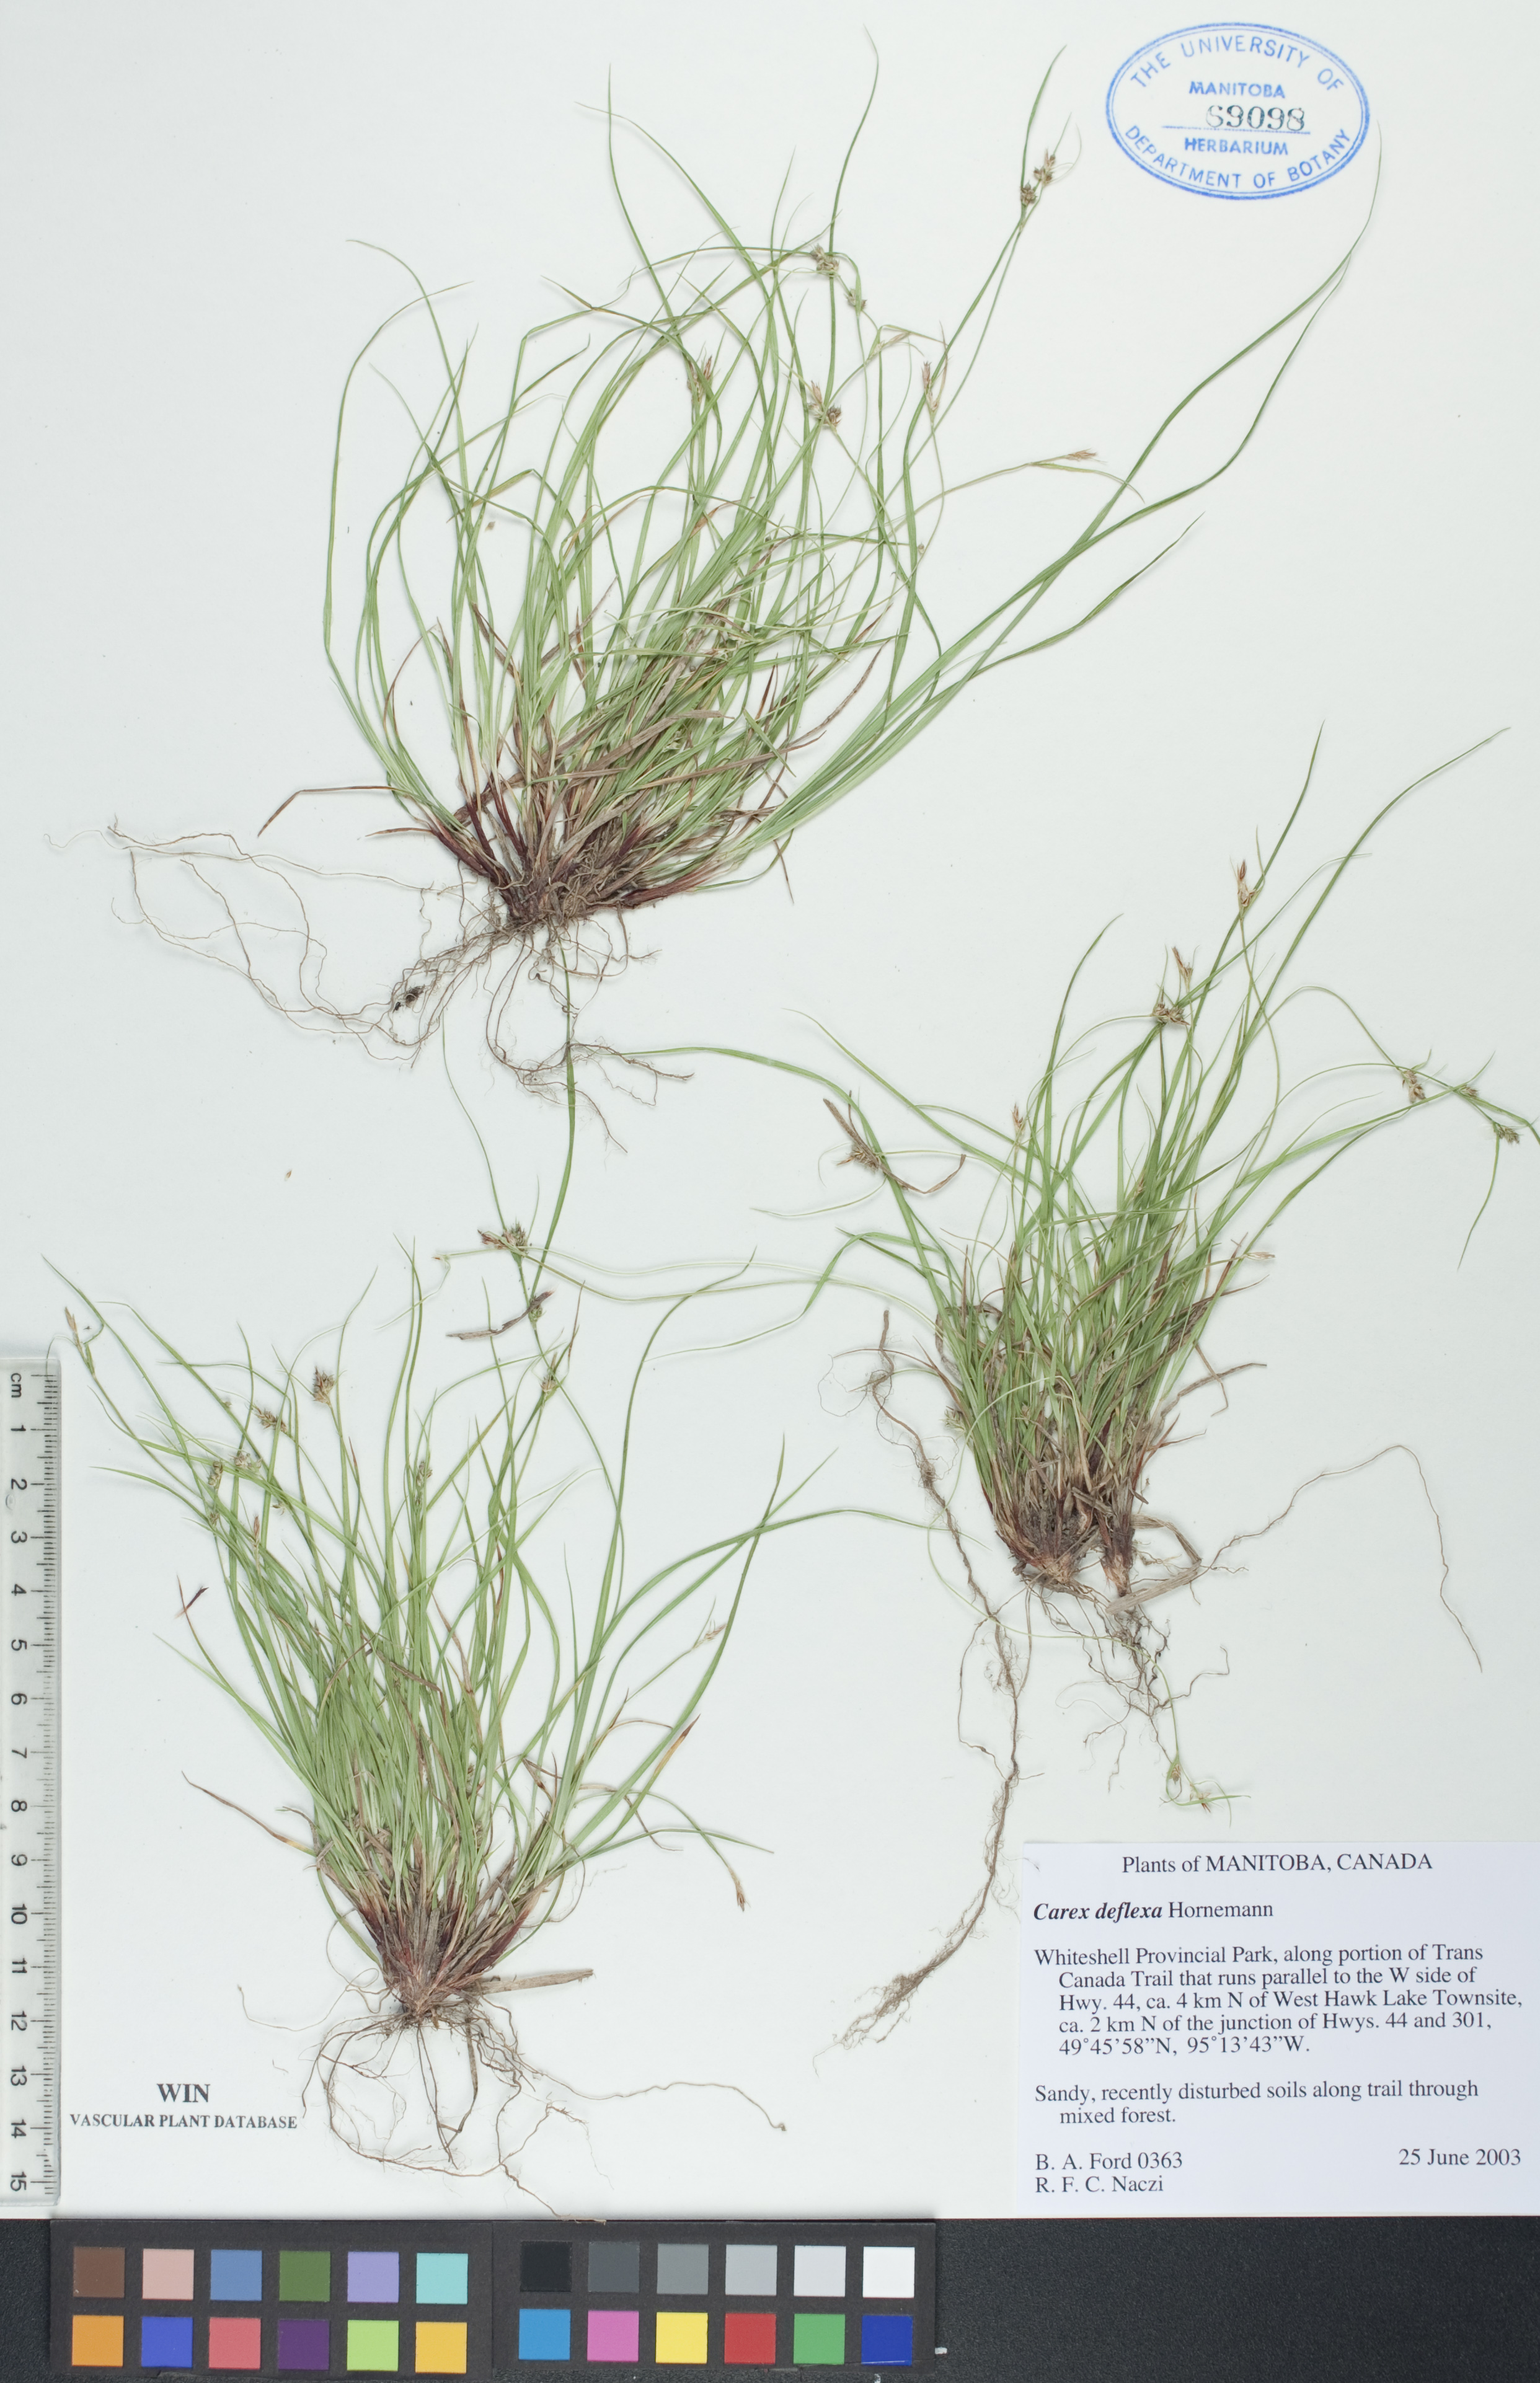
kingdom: Plantae
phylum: Tracheophyta
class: Liliopsida
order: Poales
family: Cyperaceae
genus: Carex
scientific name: Carex deflexa
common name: Bent northern sedge
